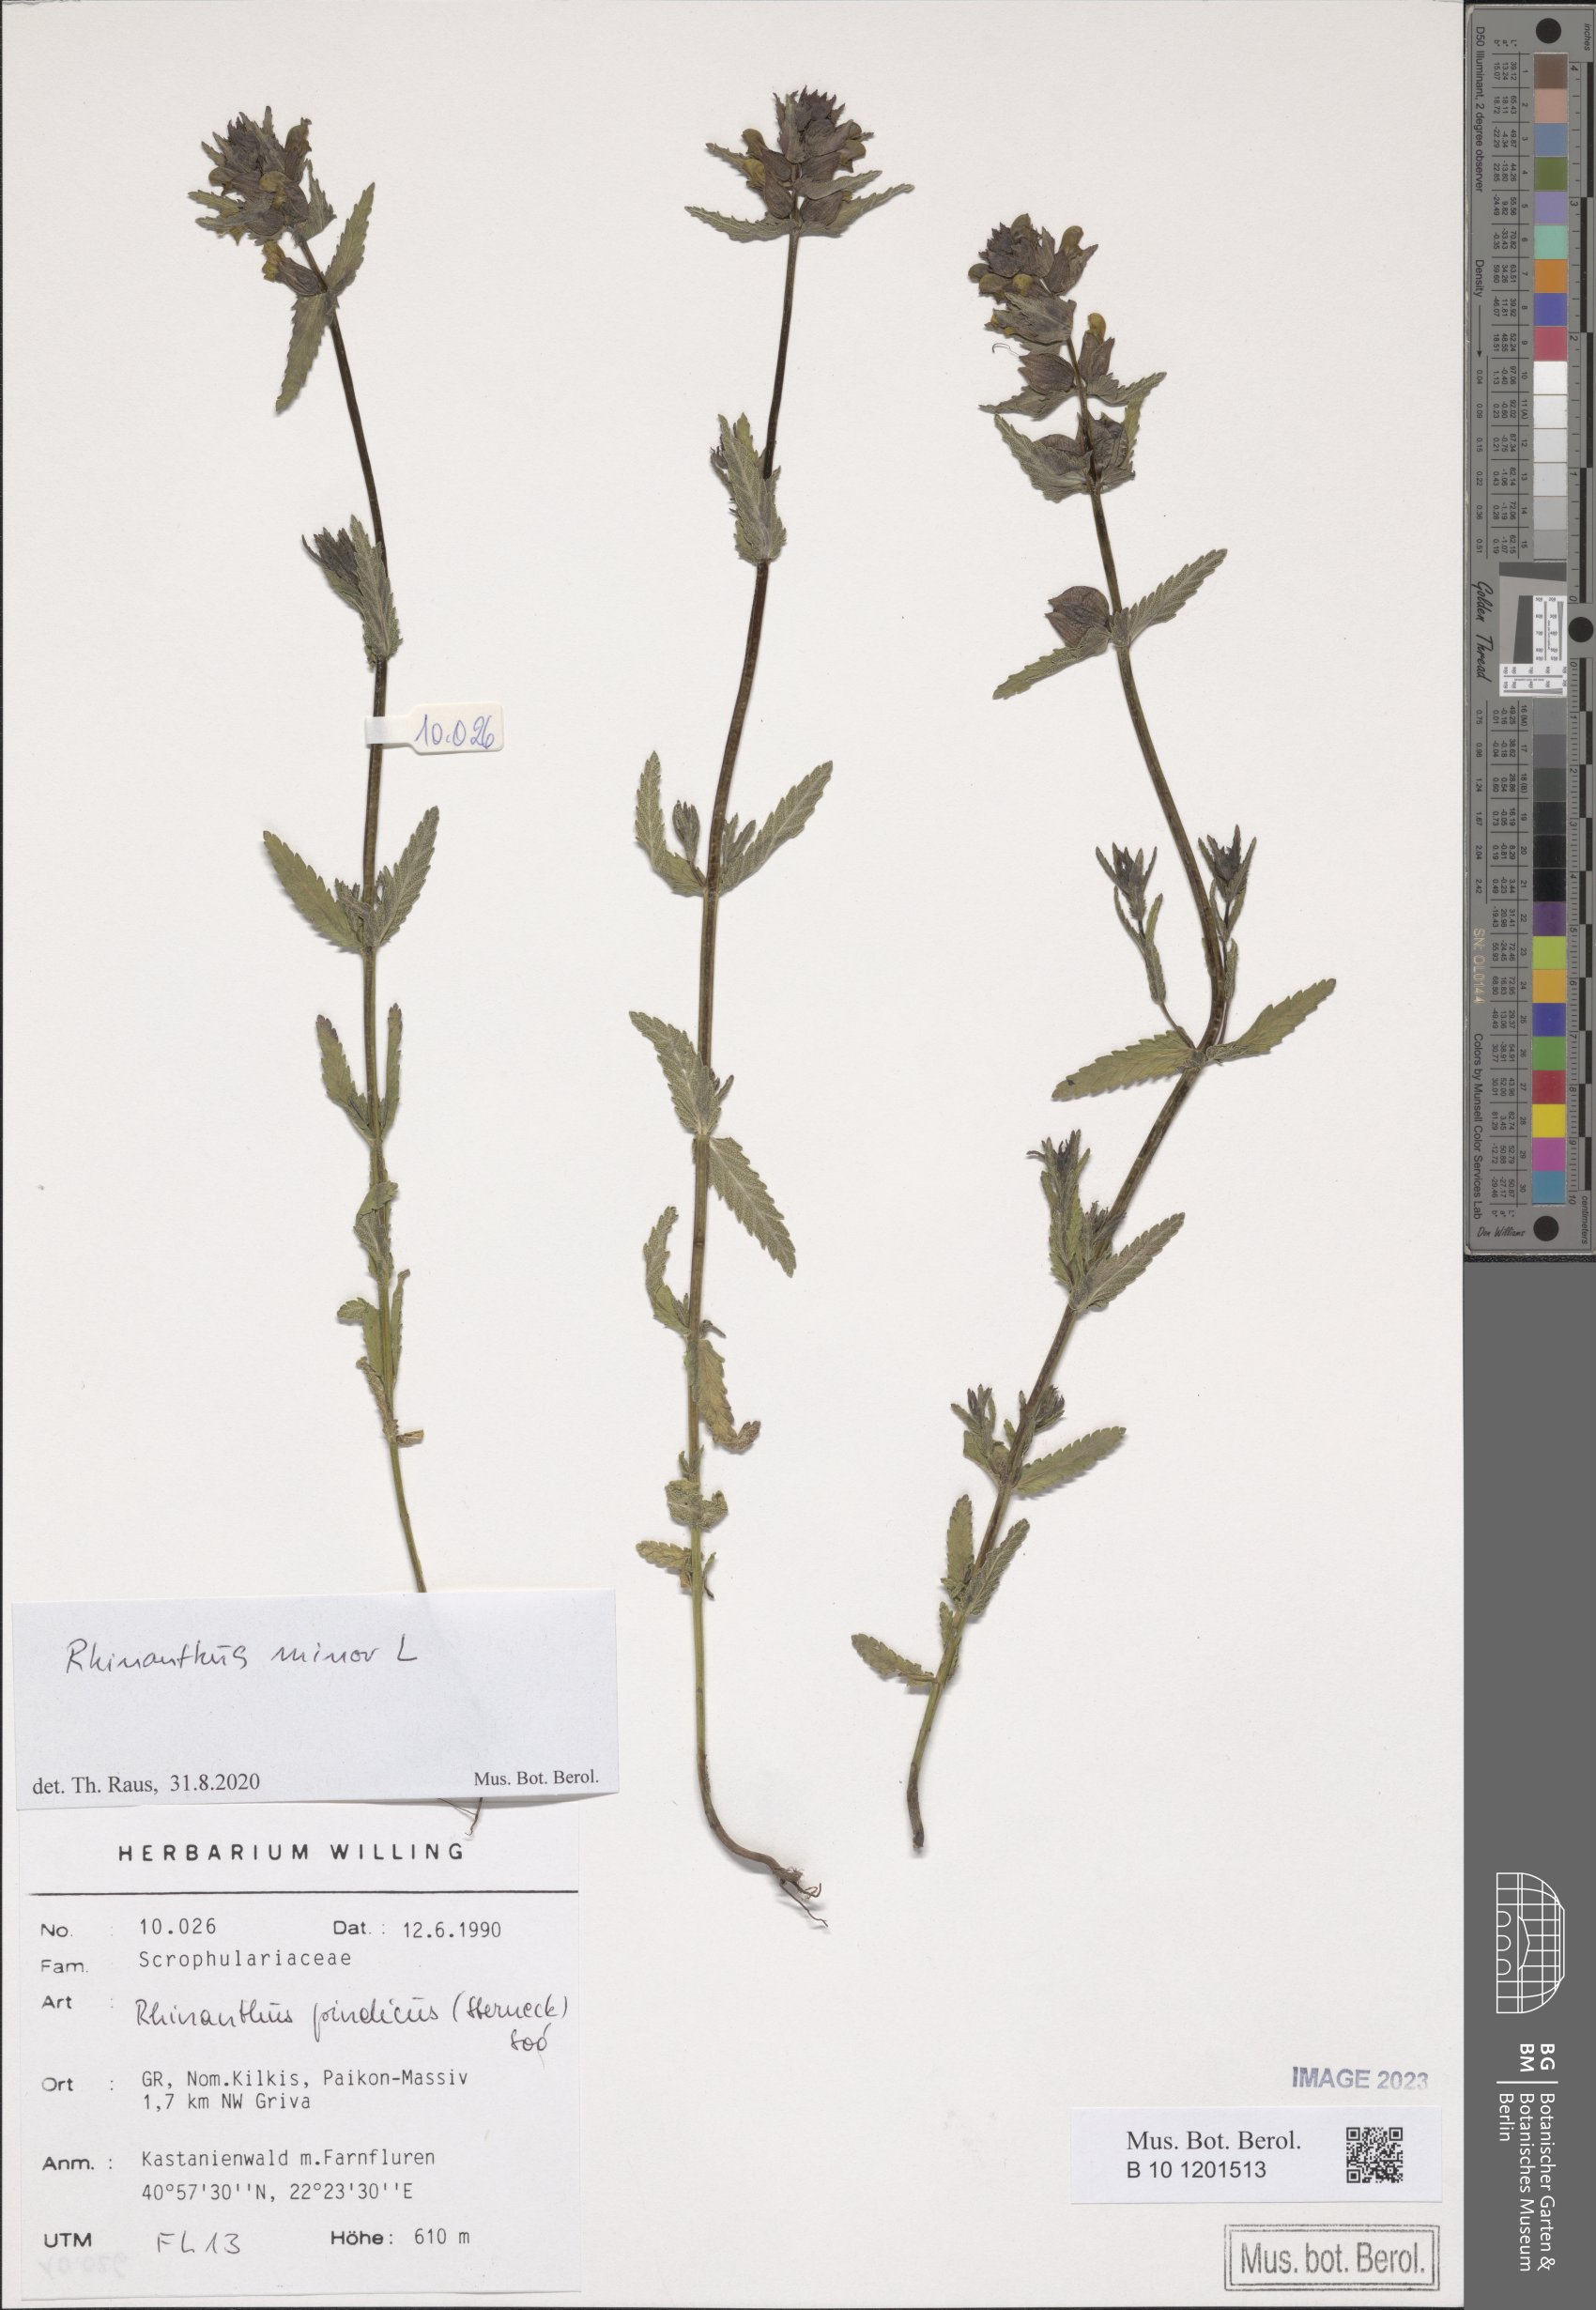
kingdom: Plantae
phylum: Tracheophyta
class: Magnoliopsida
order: Lamiales
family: Orobanchaceae
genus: Rhinanthus
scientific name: Rhinanthus minor
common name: Yellow-rattle
